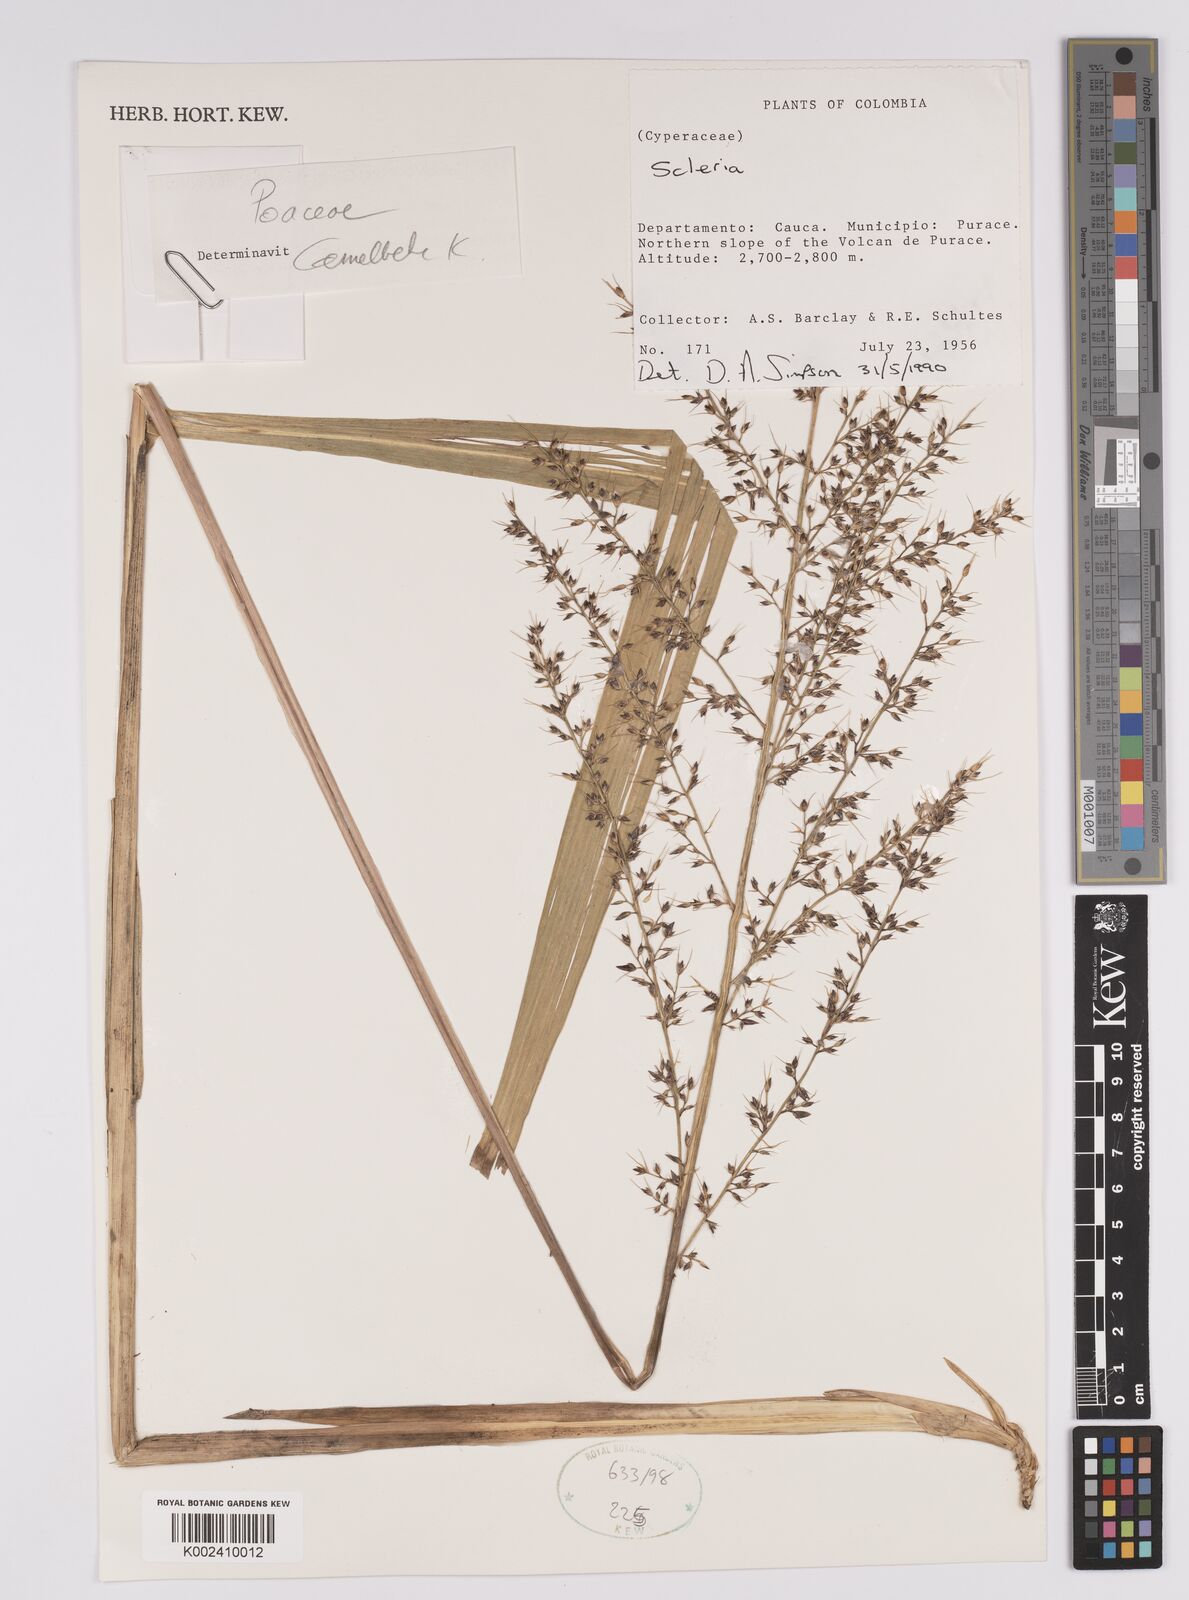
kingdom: Plantae
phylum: Tracheophyta
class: Liliopsida
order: Poales
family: Cyperaceae
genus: Scleria
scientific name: Scleria
